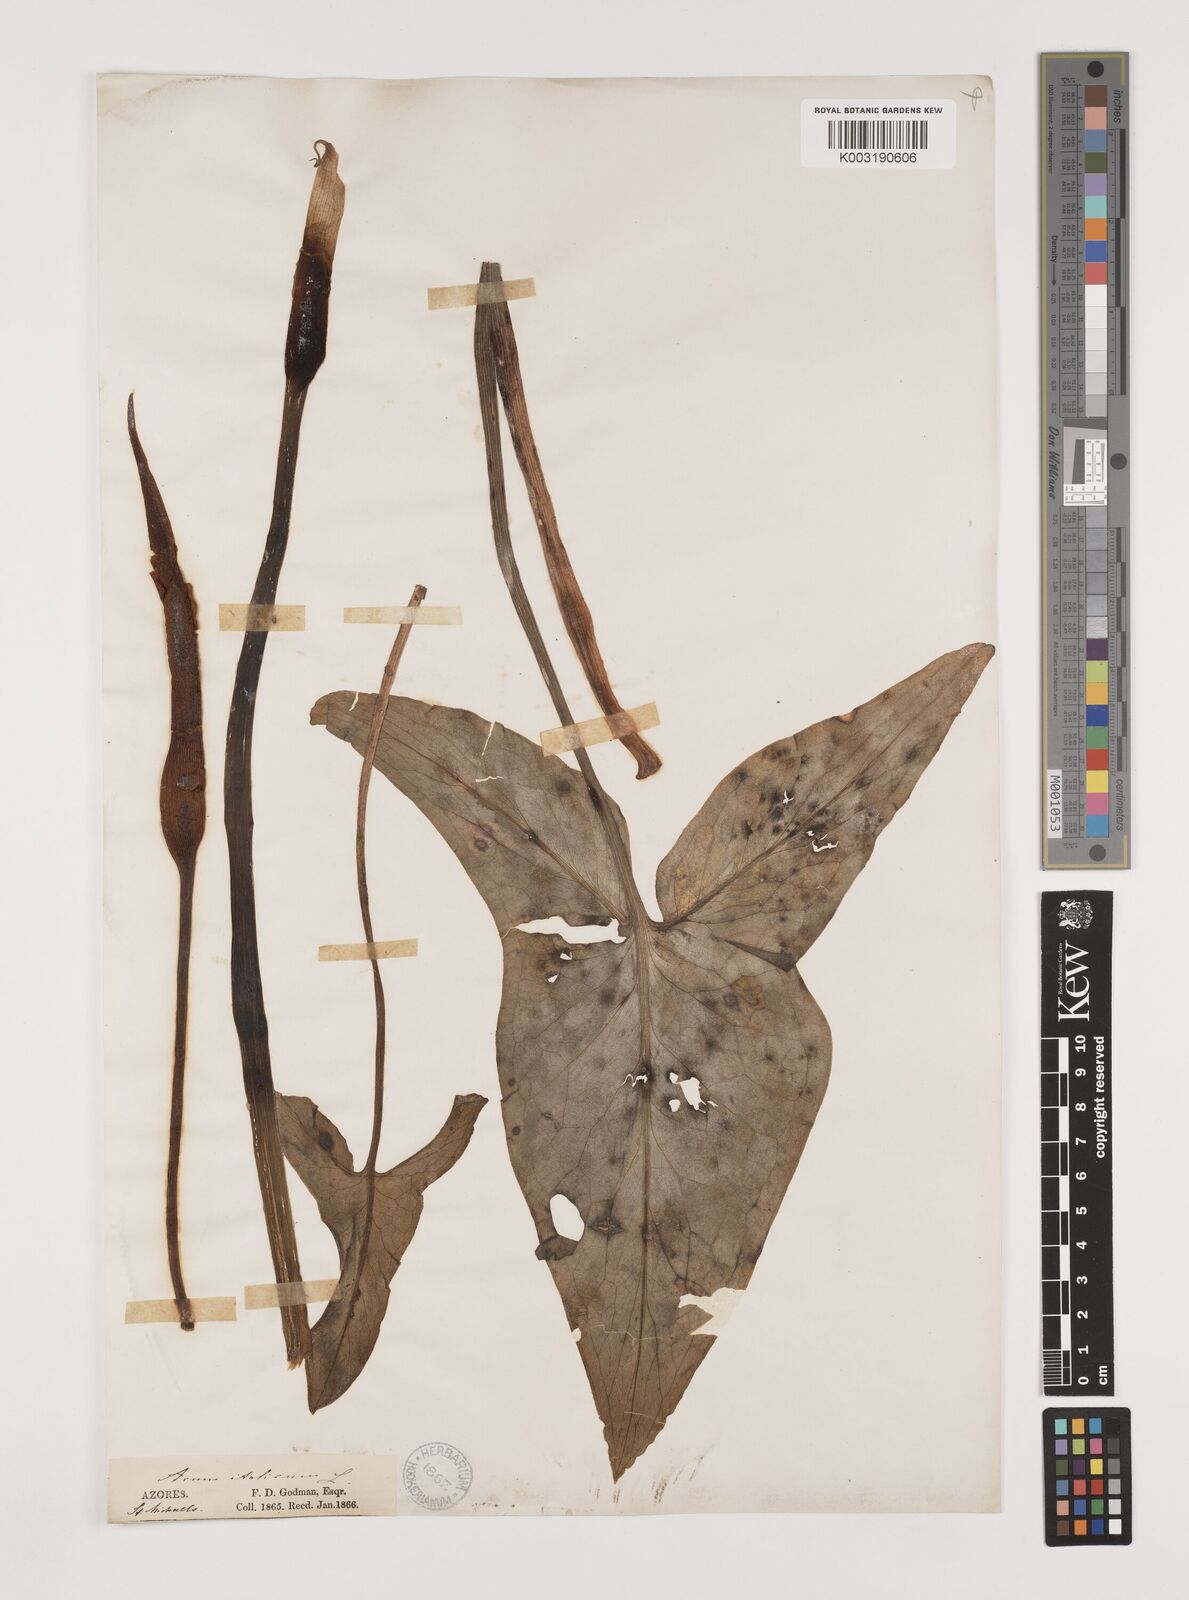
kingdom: Plantae
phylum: Tracheophyta
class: Liliopsida
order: Alismatales
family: Araceae
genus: Arum
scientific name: Arum italicum
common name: Italian lords-and-ladies
